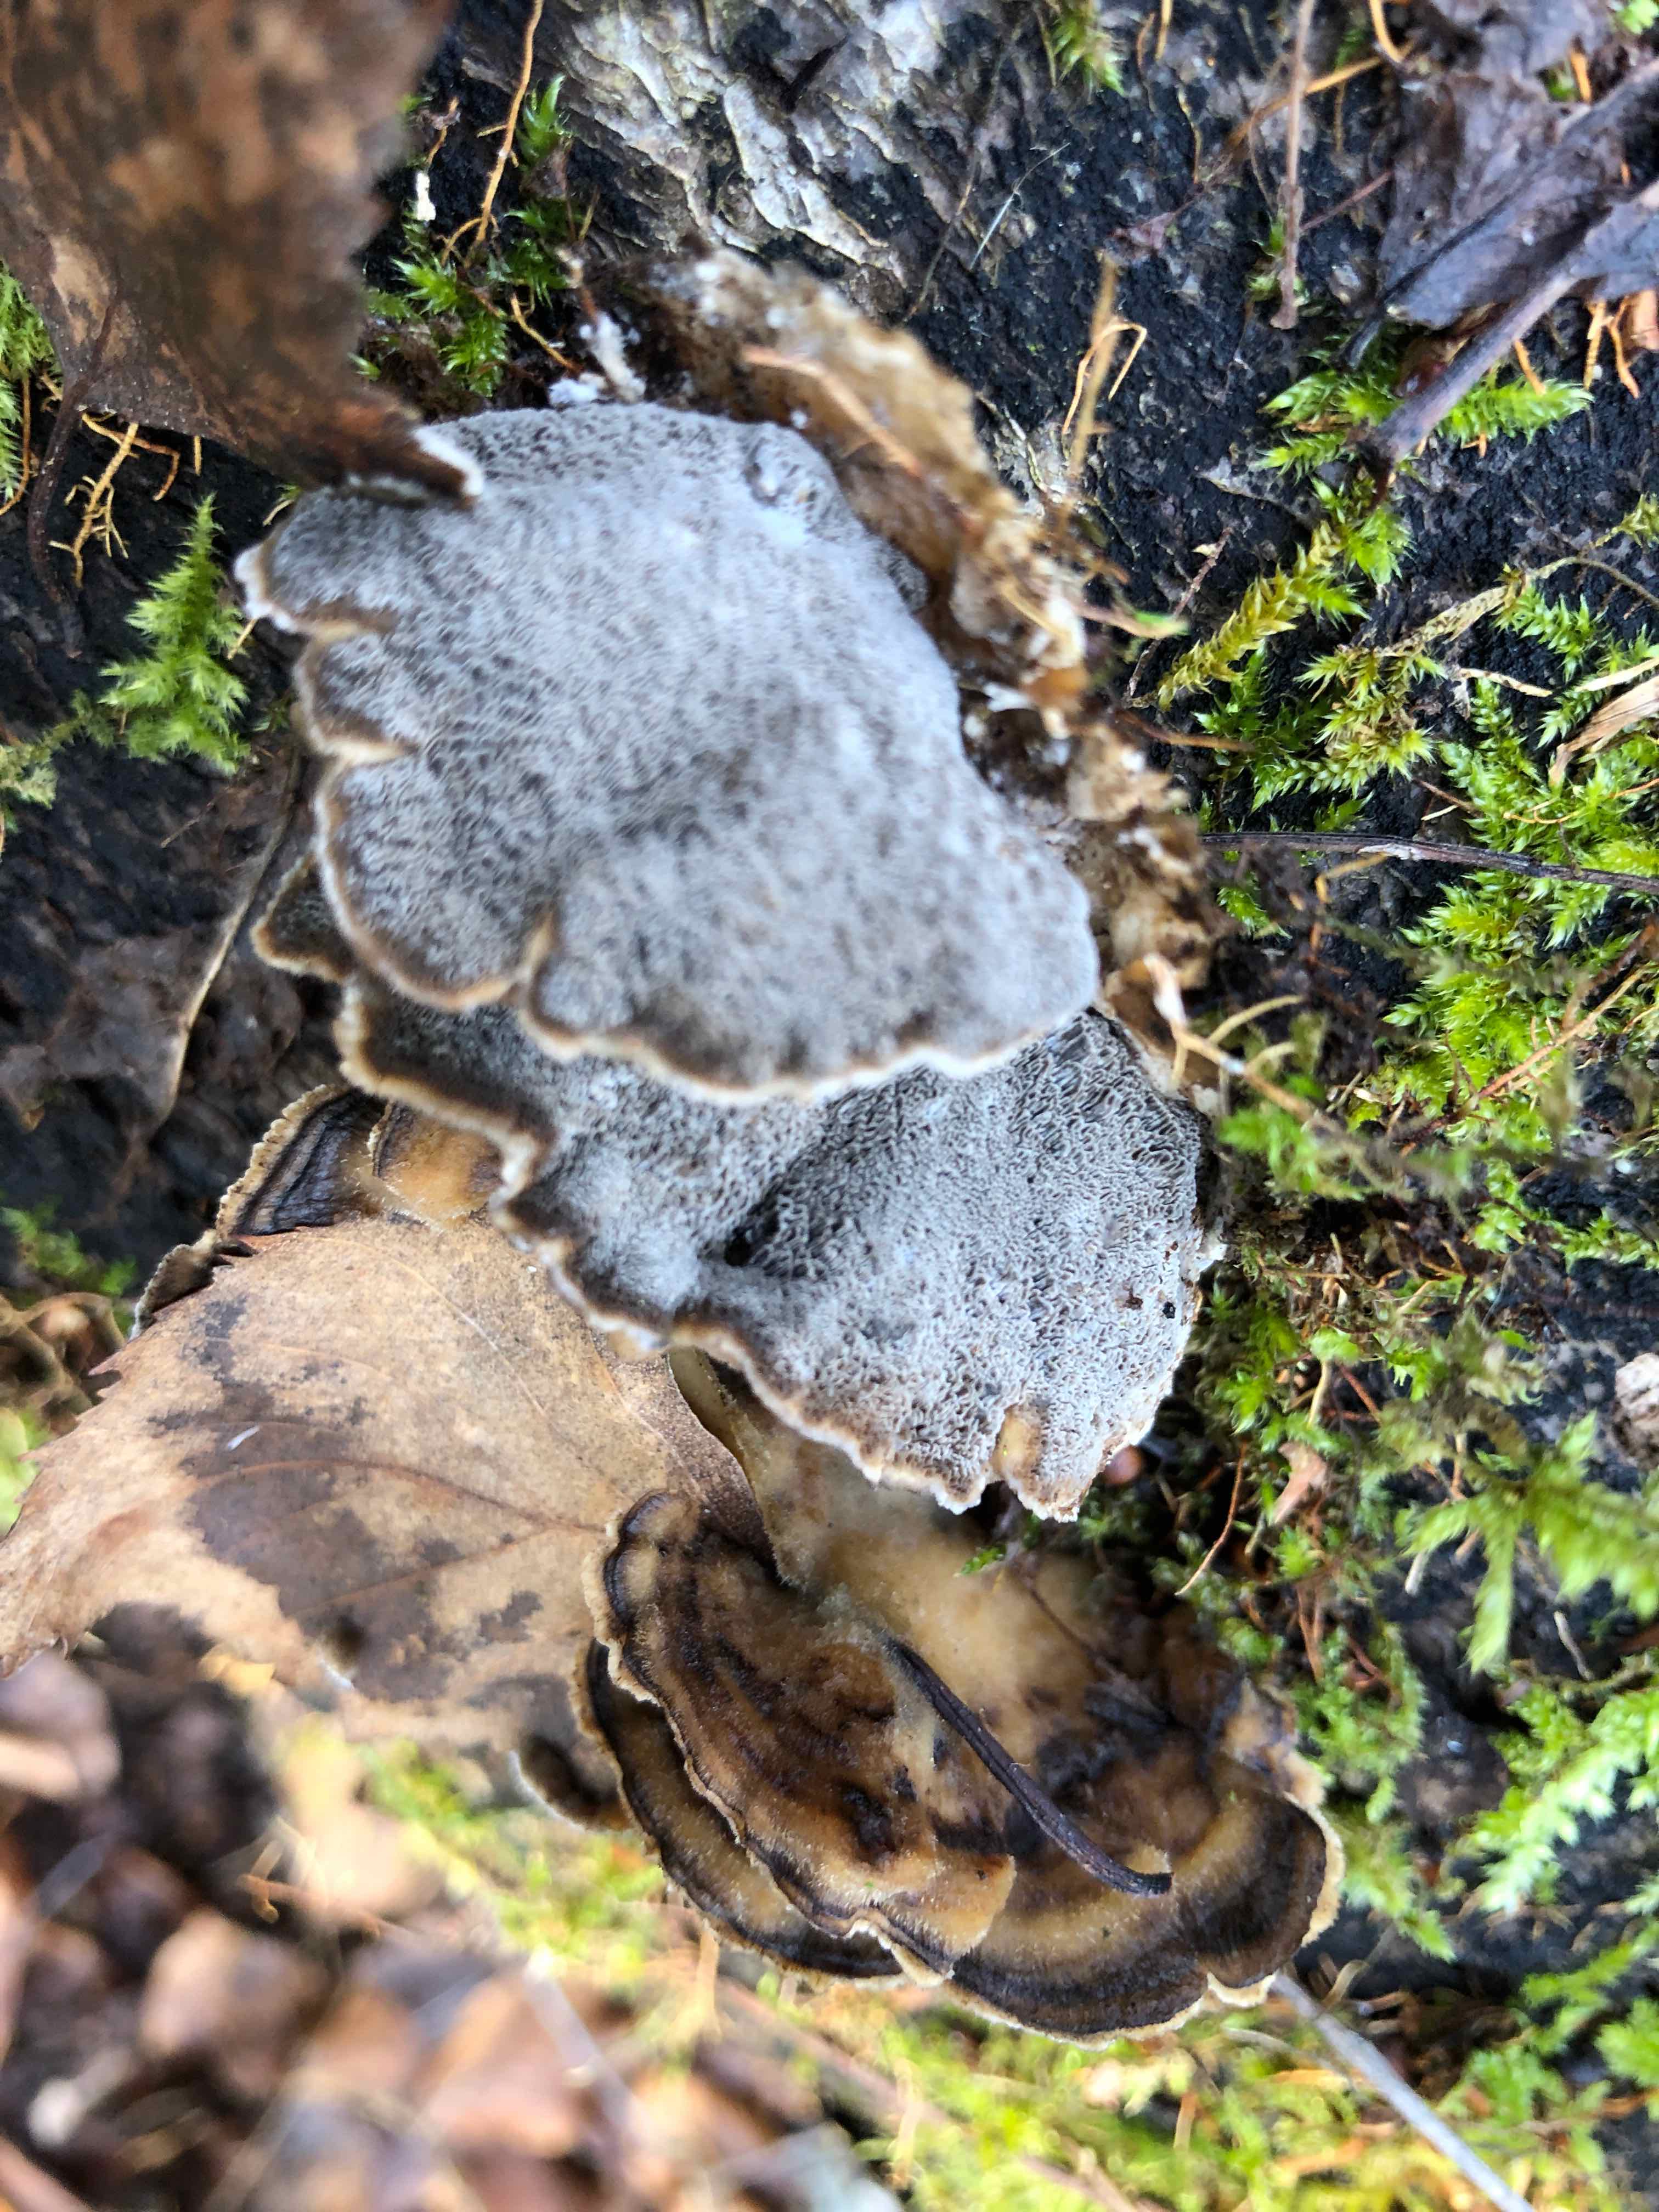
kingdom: Fungi
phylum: Basidiomycota
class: Agaricomycetes
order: Polyporales
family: Phanerochaetaceae
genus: Bjerkandera
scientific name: Bjerkandera adusta
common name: sveden sodporesvamp
